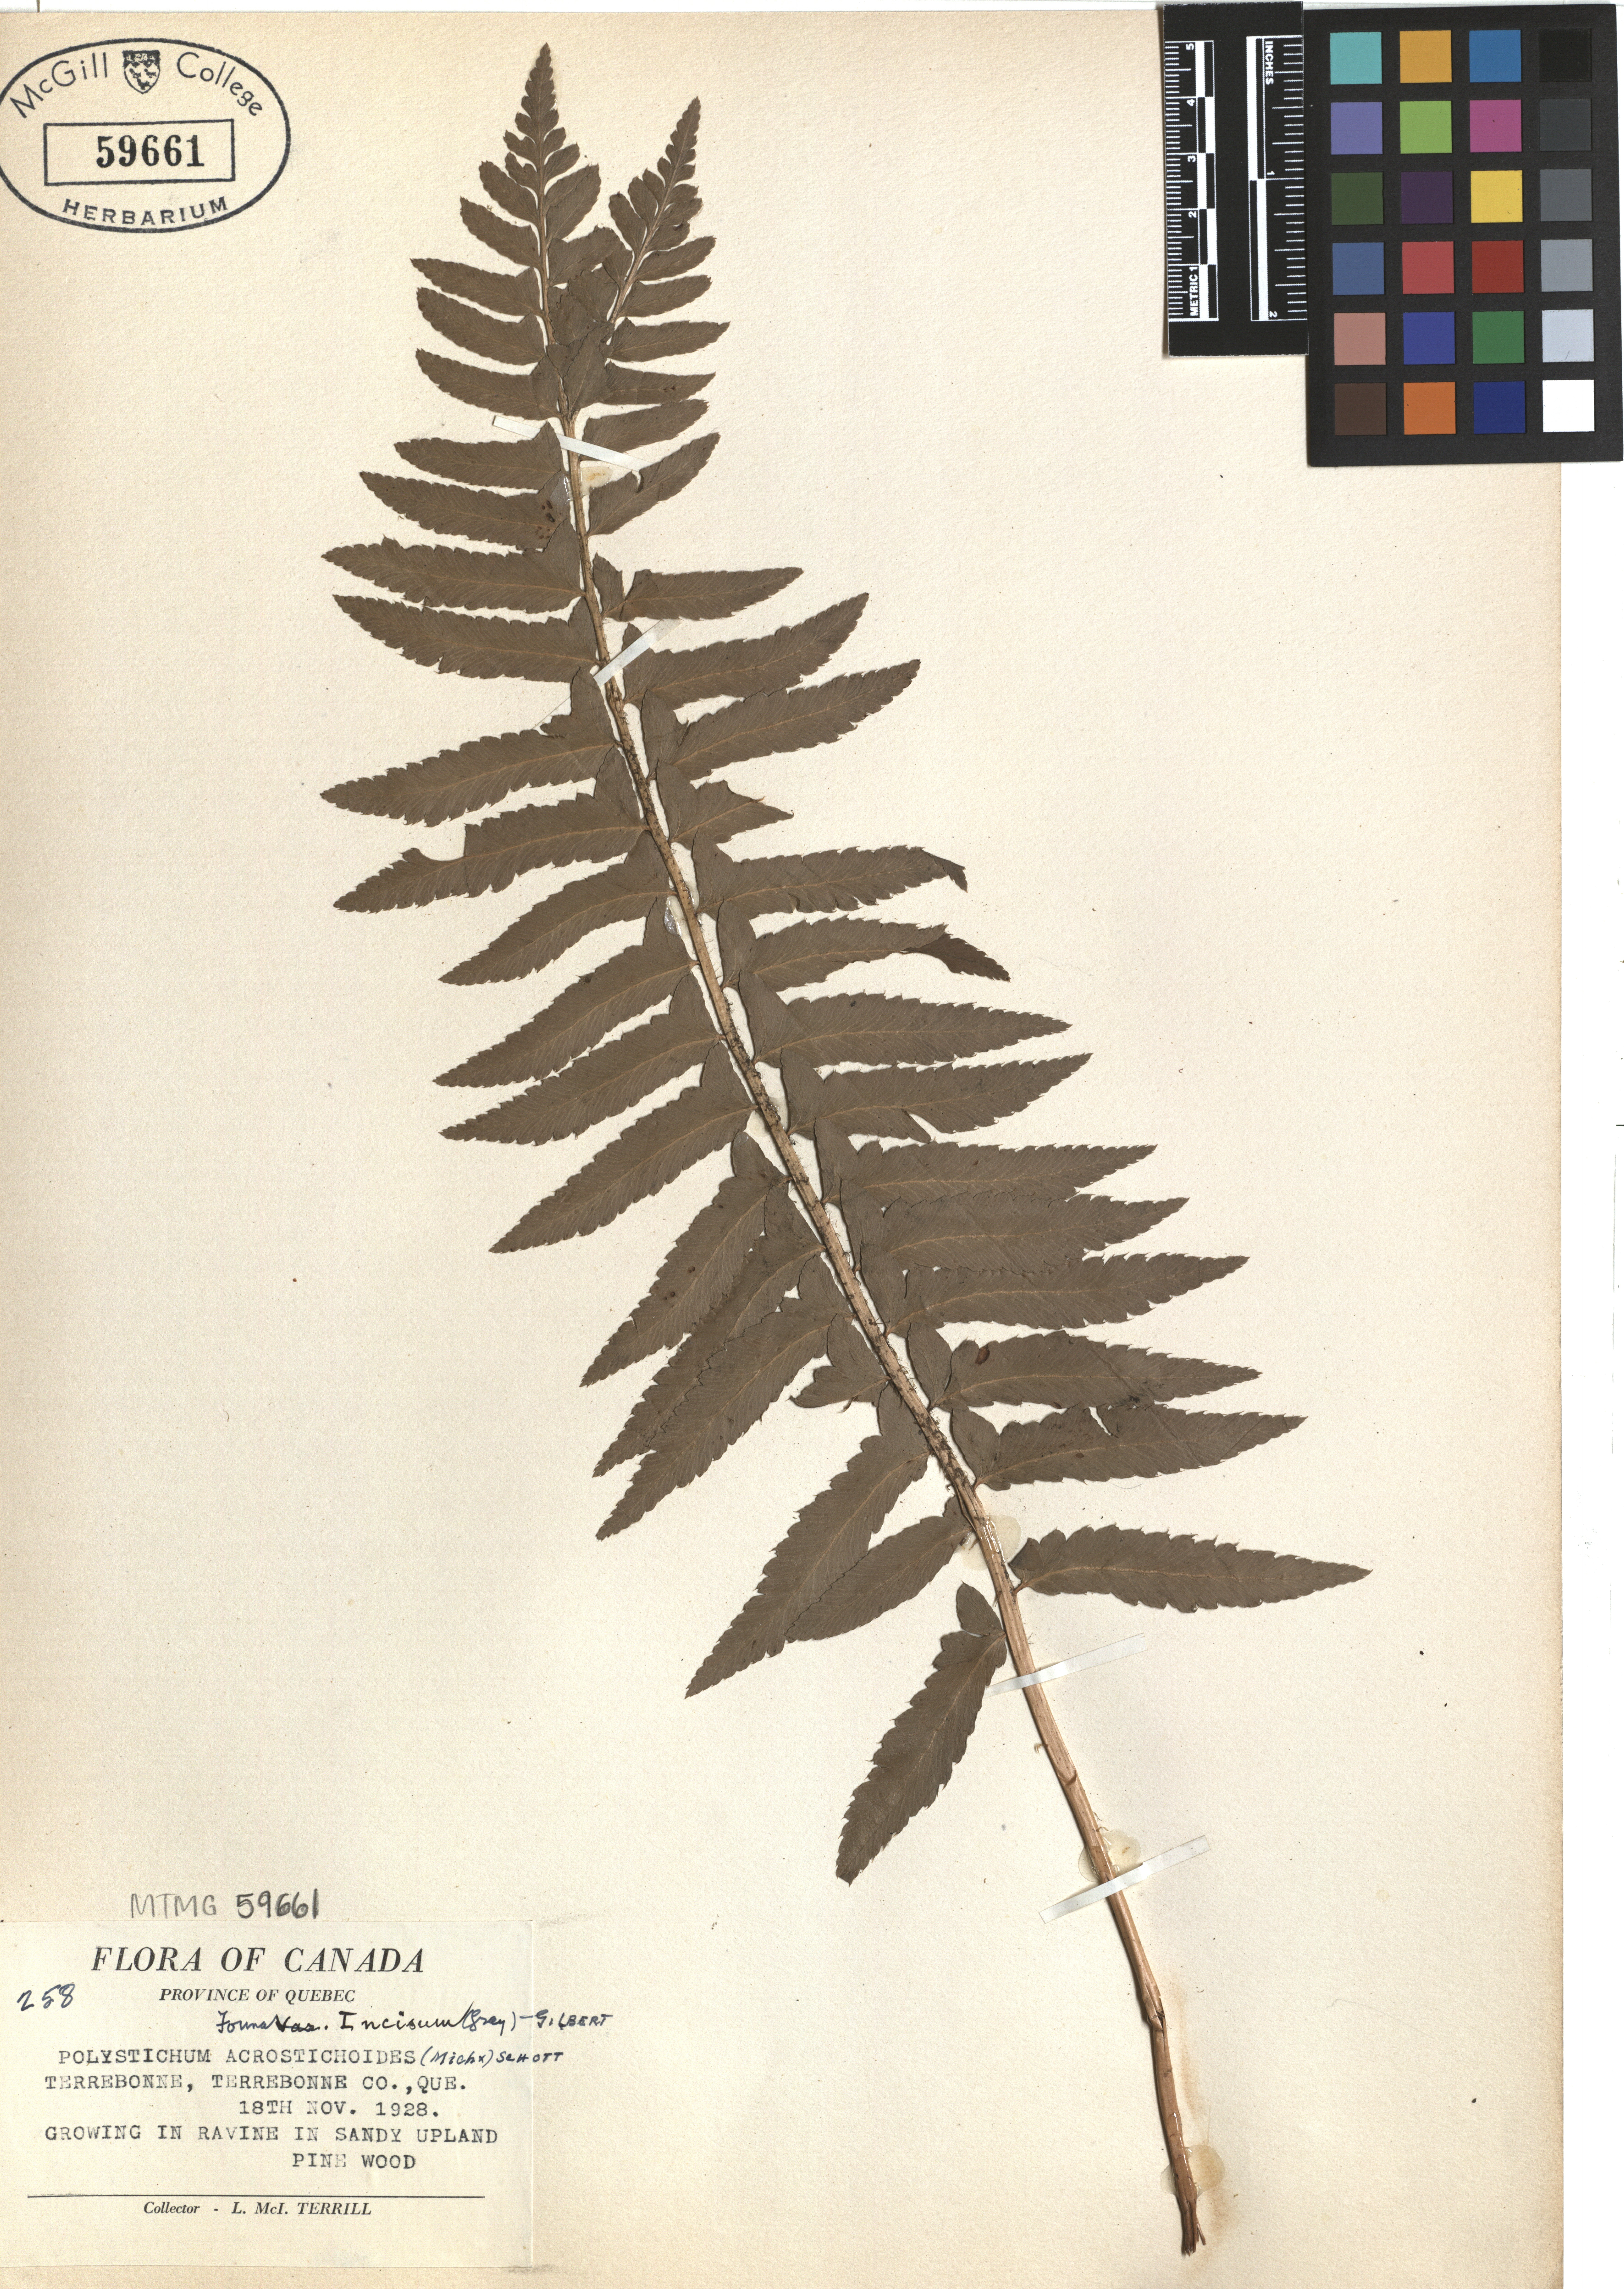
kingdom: Plantae
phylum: Tracheophyta
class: Polypodiopsida
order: Polypodiales
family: Dryopteridaceae
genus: Polystichum
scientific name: Polystichum acrostichoides
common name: Christmas fern
